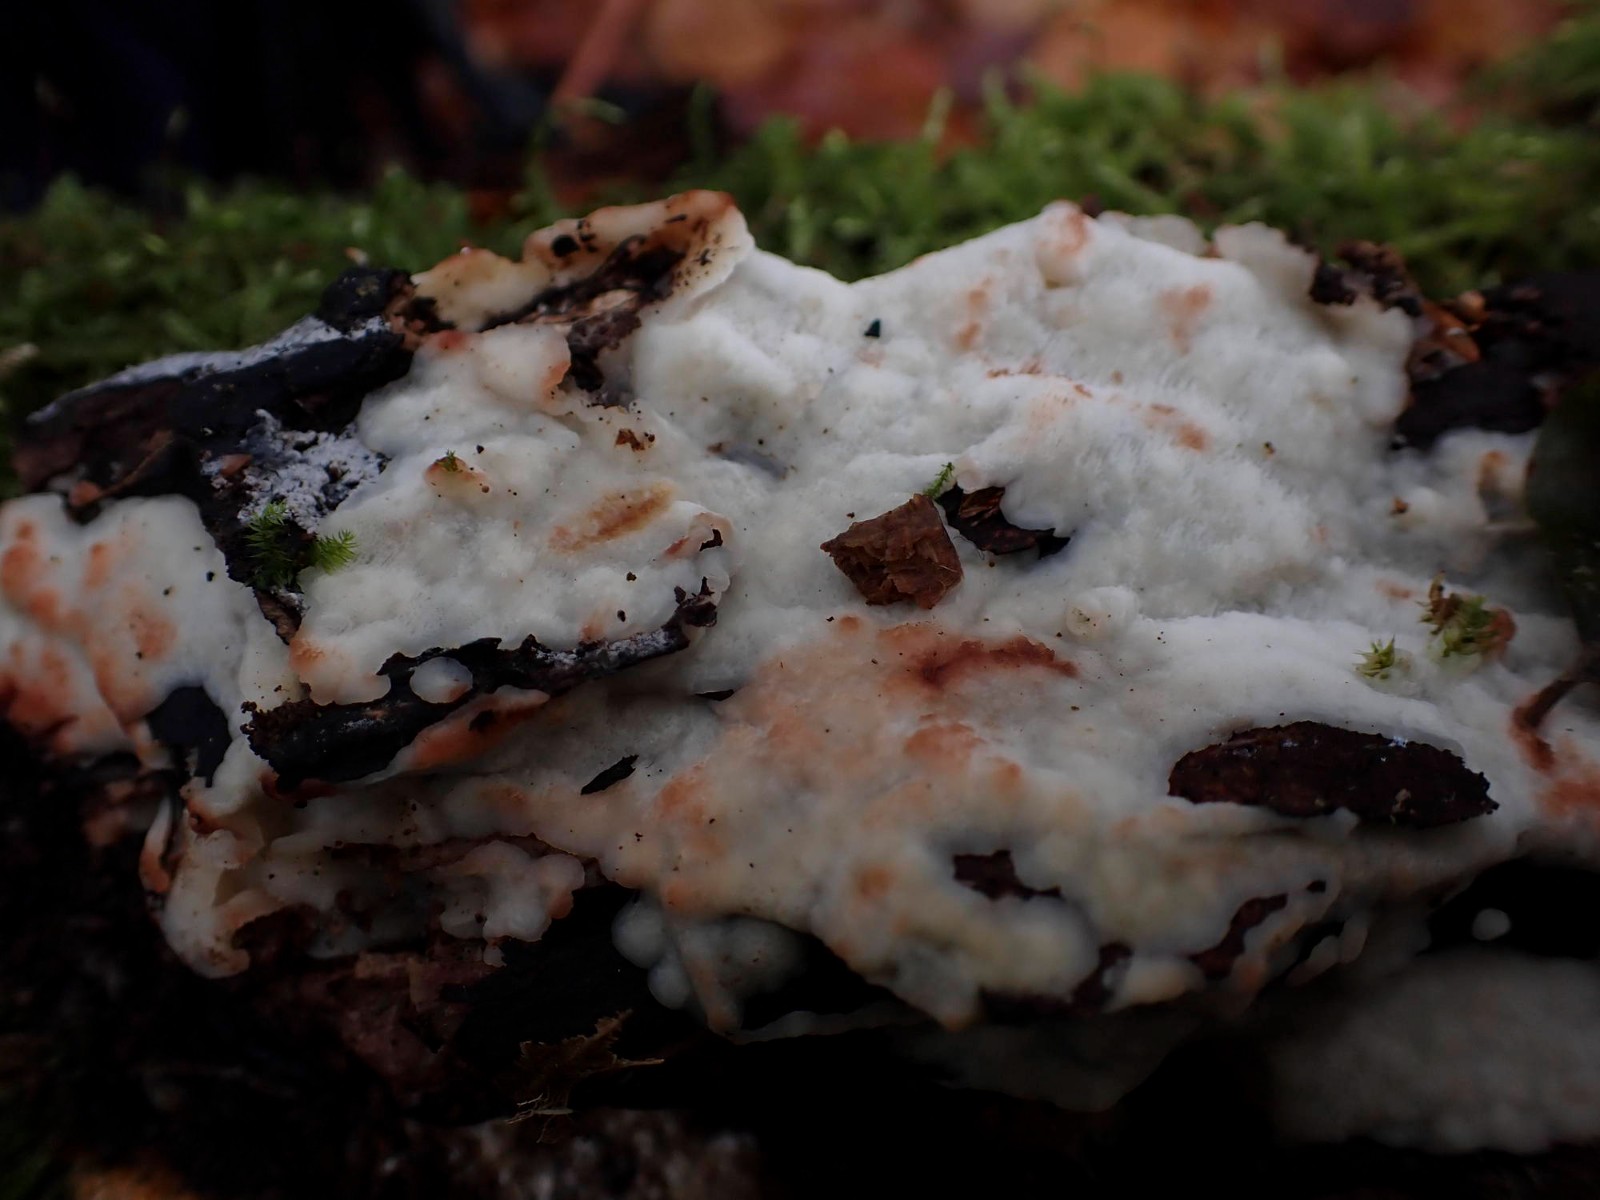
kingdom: Fungi
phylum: Basidiomycota
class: Agaricomycetes
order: Polyporales
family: Meripilaceae
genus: Rigidoporus
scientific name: Rigidoporus sanguinolentus
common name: blod-skorpeporesvamp
